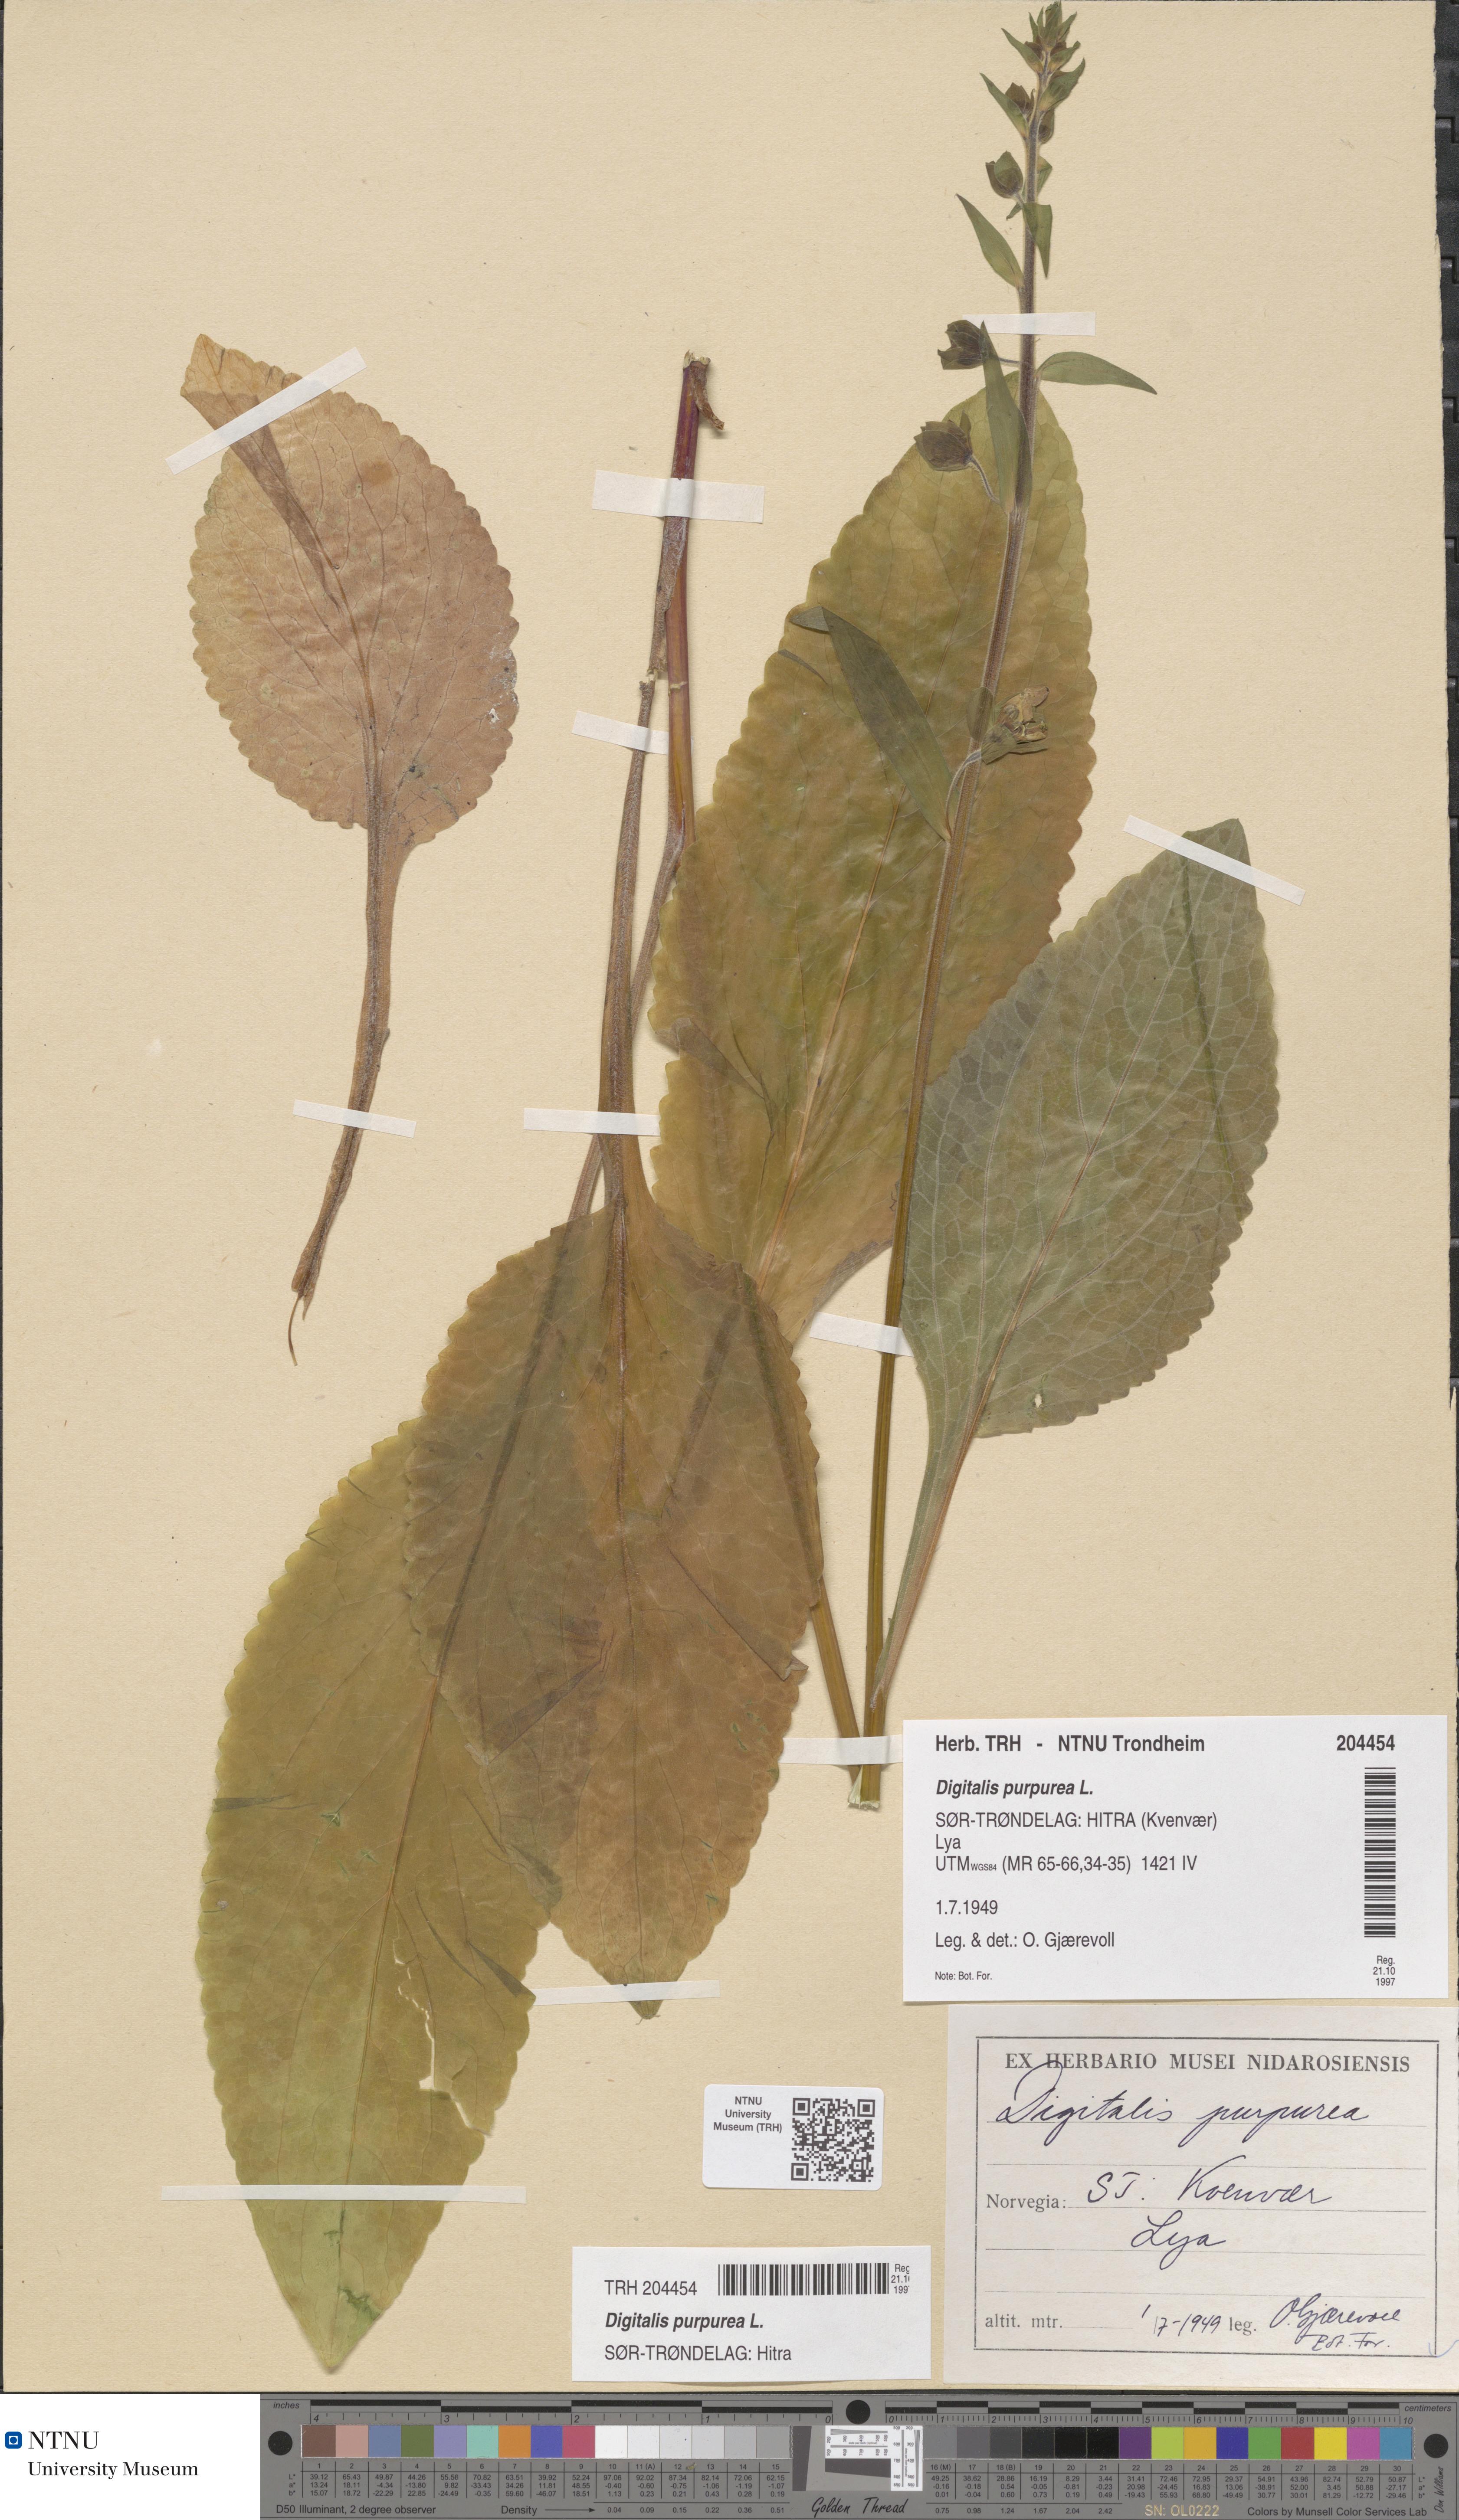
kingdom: Plantae
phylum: Tracheophyta
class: Magnoliopsida
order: Lamiales
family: Plantaginaceae
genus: Digitalis
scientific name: Digitalis purpurea
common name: Foxglove
